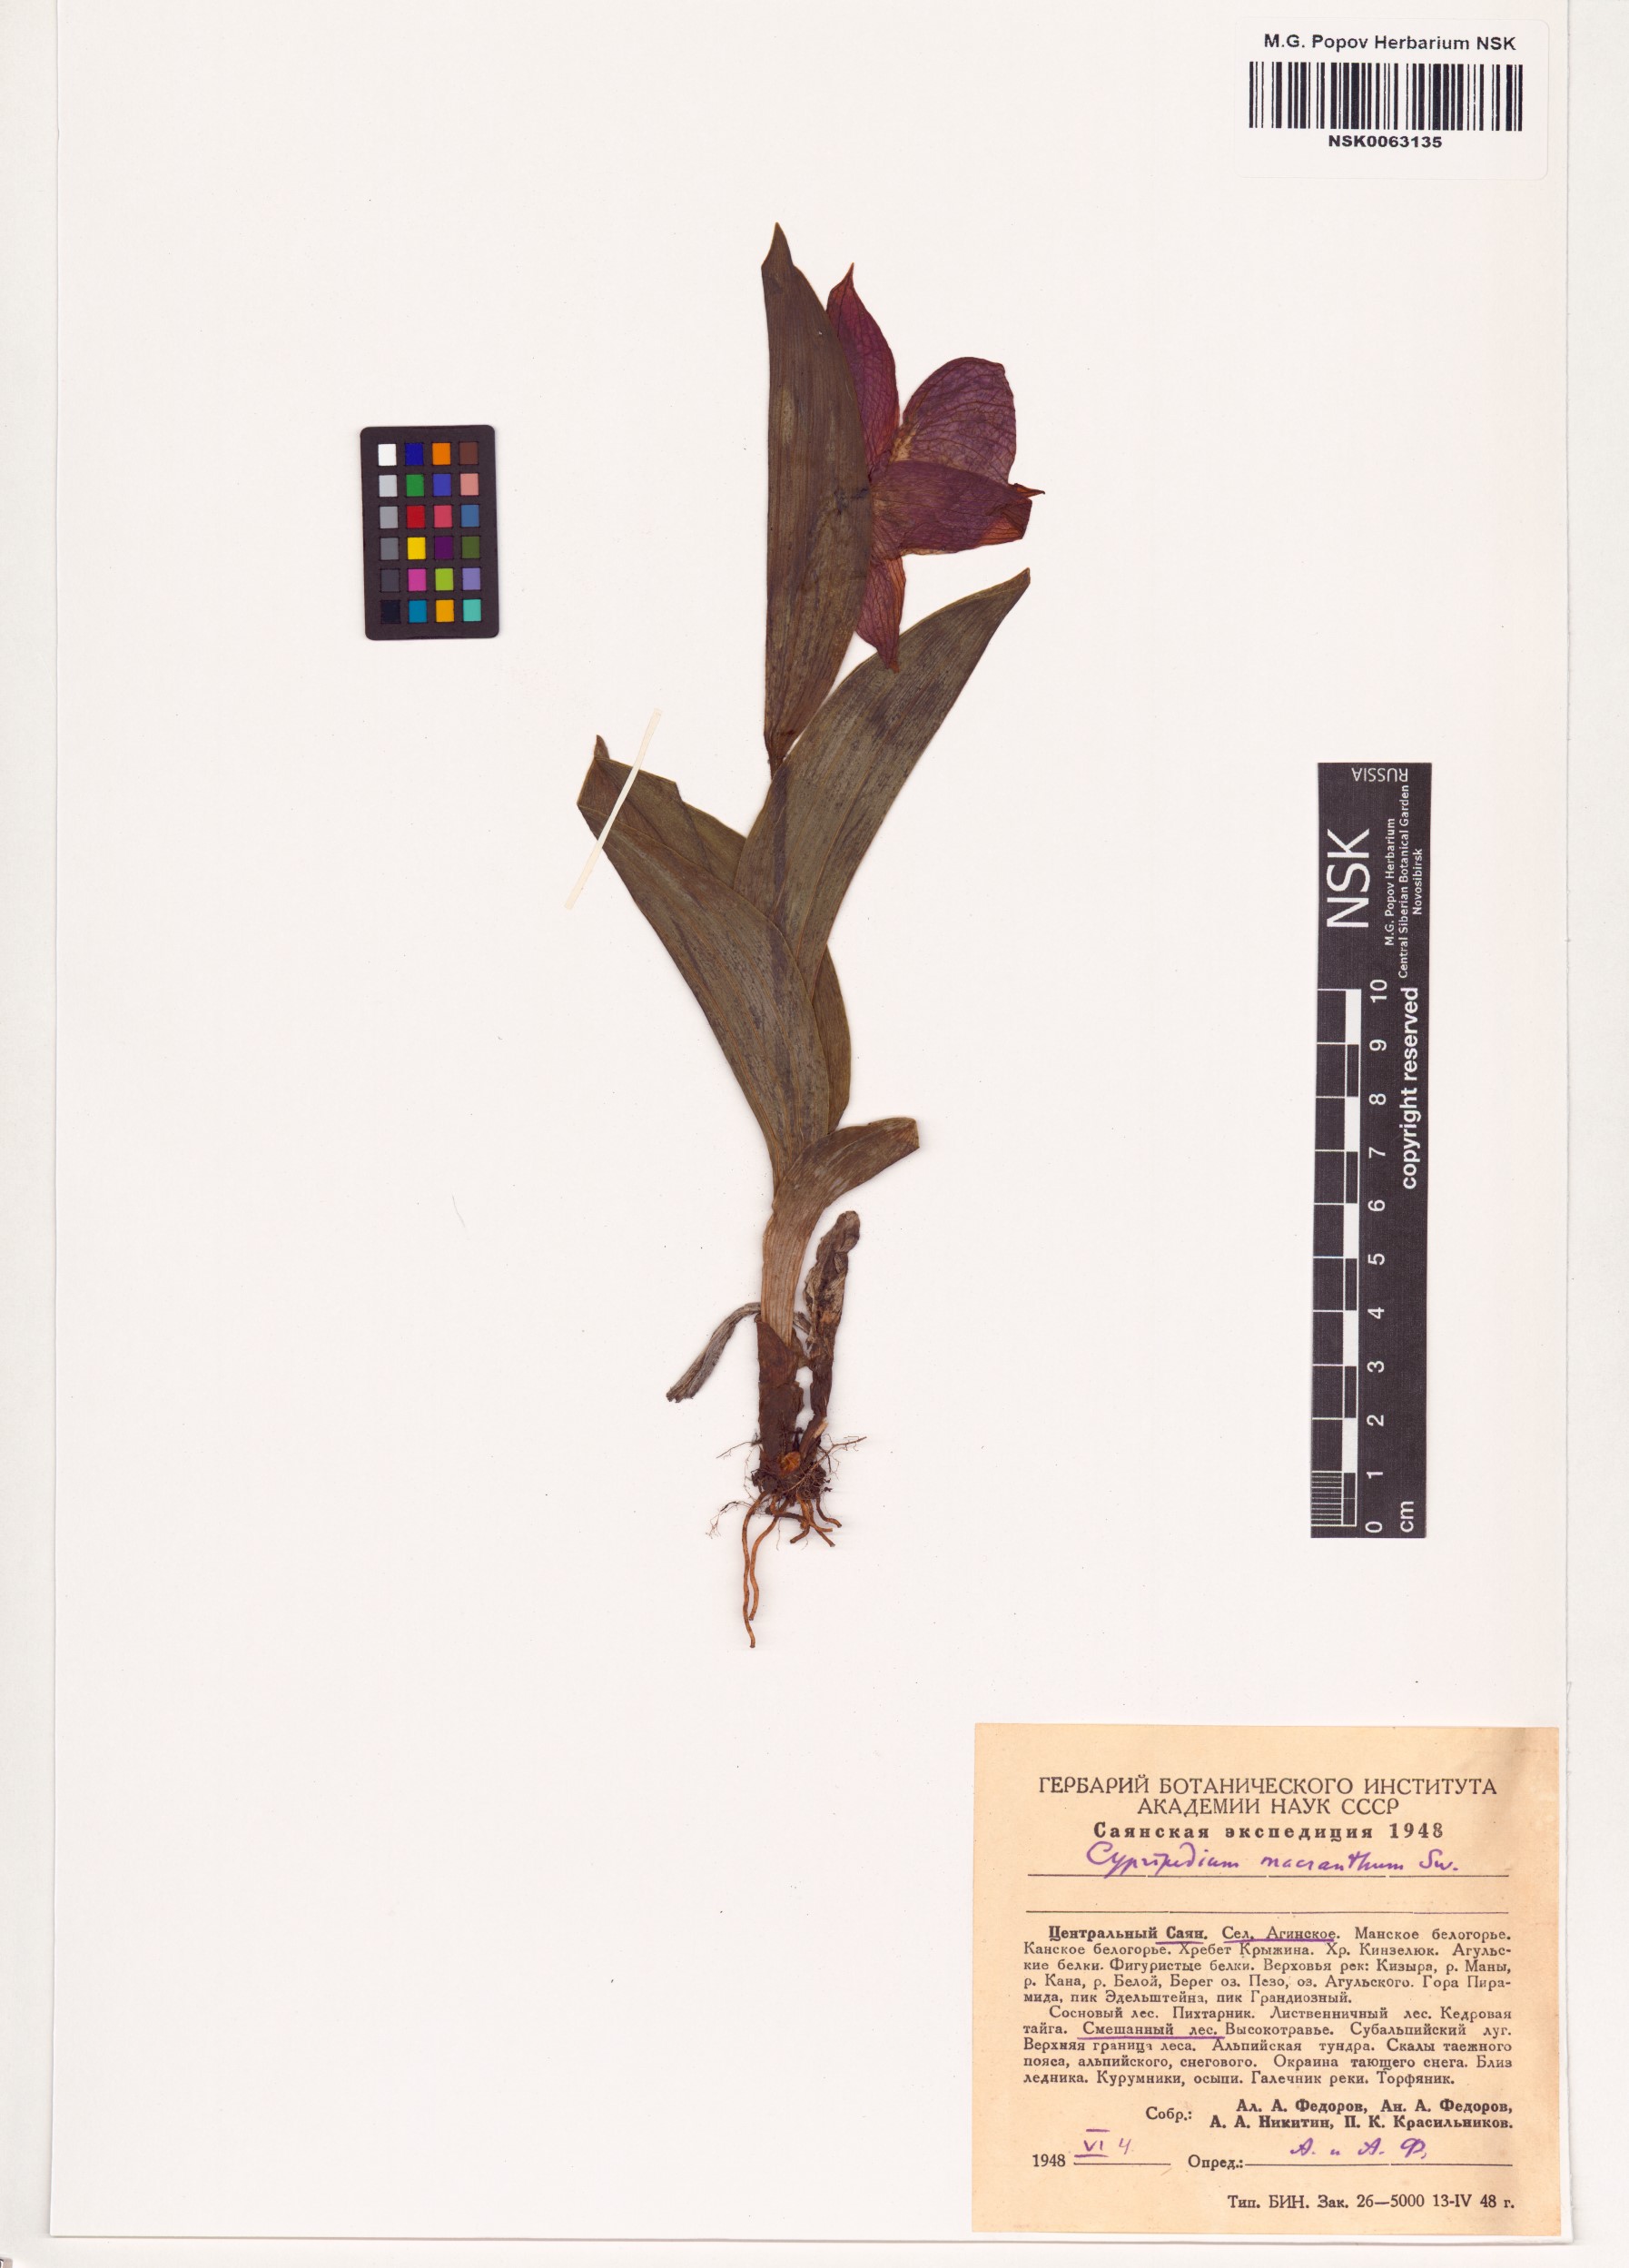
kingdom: Plantae
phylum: Tracheophyta
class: Liliopsida
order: Asparagales
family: Orchidaceae
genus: Cypripedium
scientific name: Cypripedium macranthos
